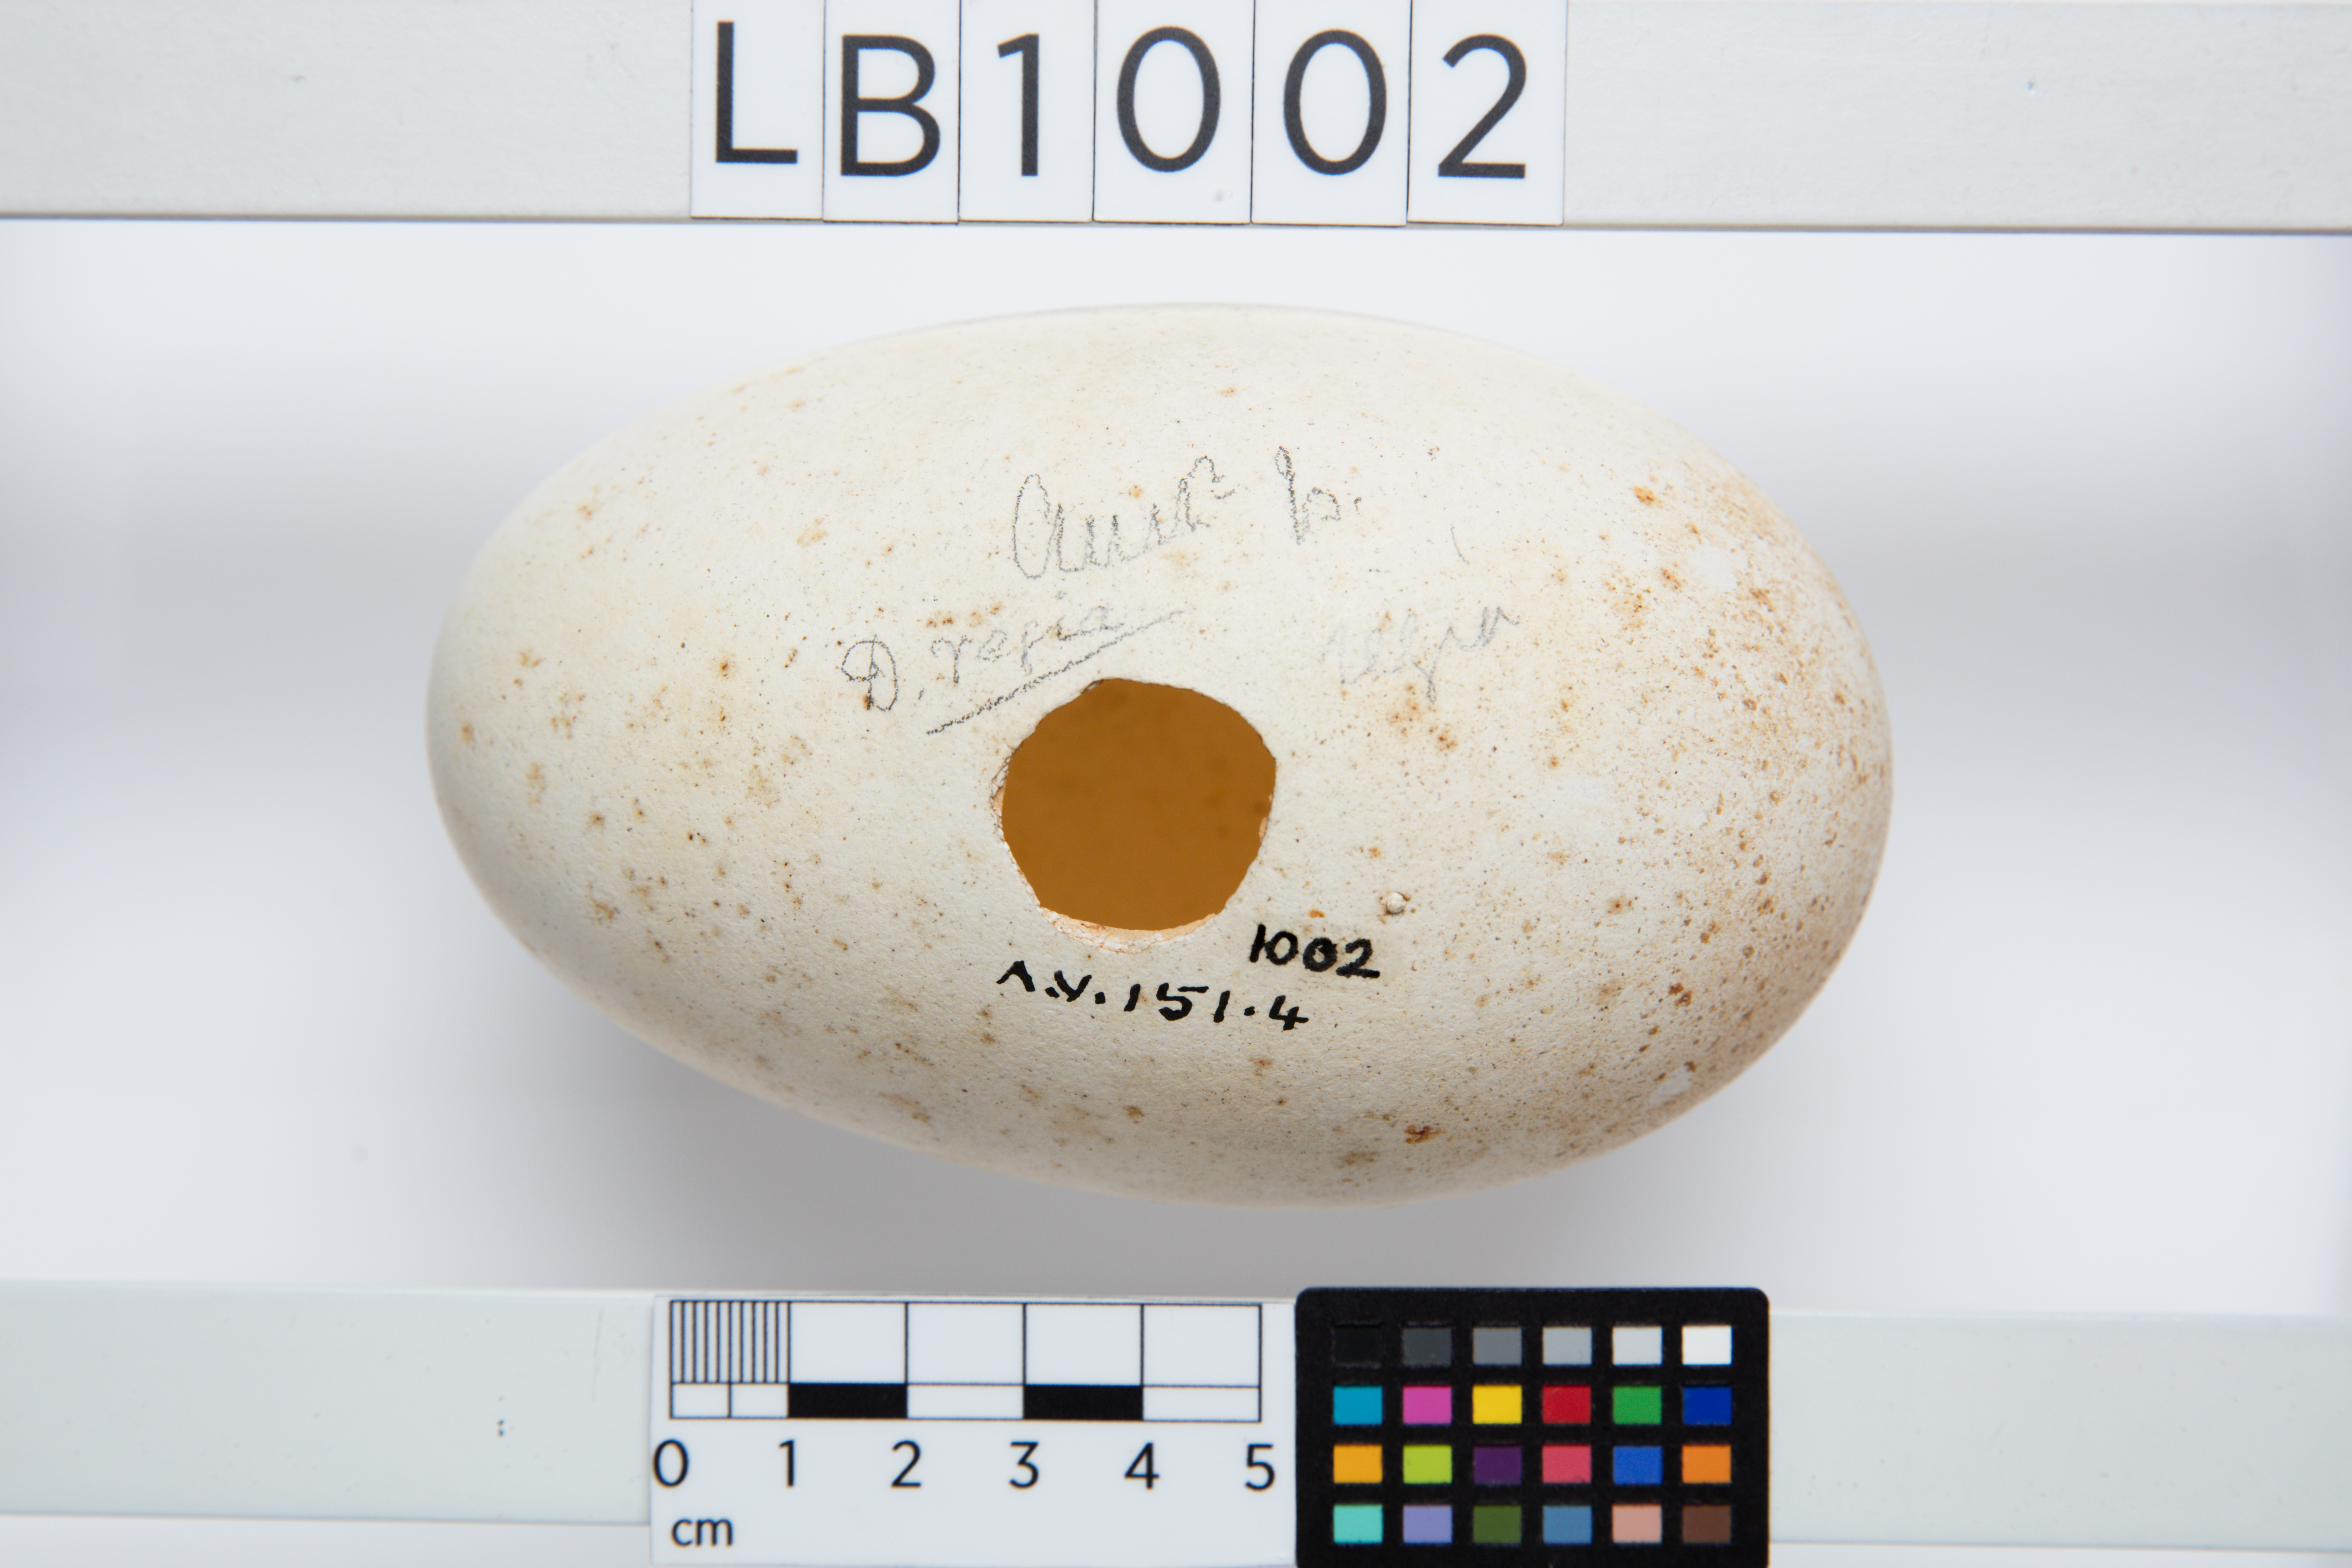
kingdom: Animalia
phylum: Chordata
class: Aves
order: Procellariiformes
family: Diomedeidae
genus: Diomedea
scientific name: Diomedea epomophora
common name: Southern royal albatross
